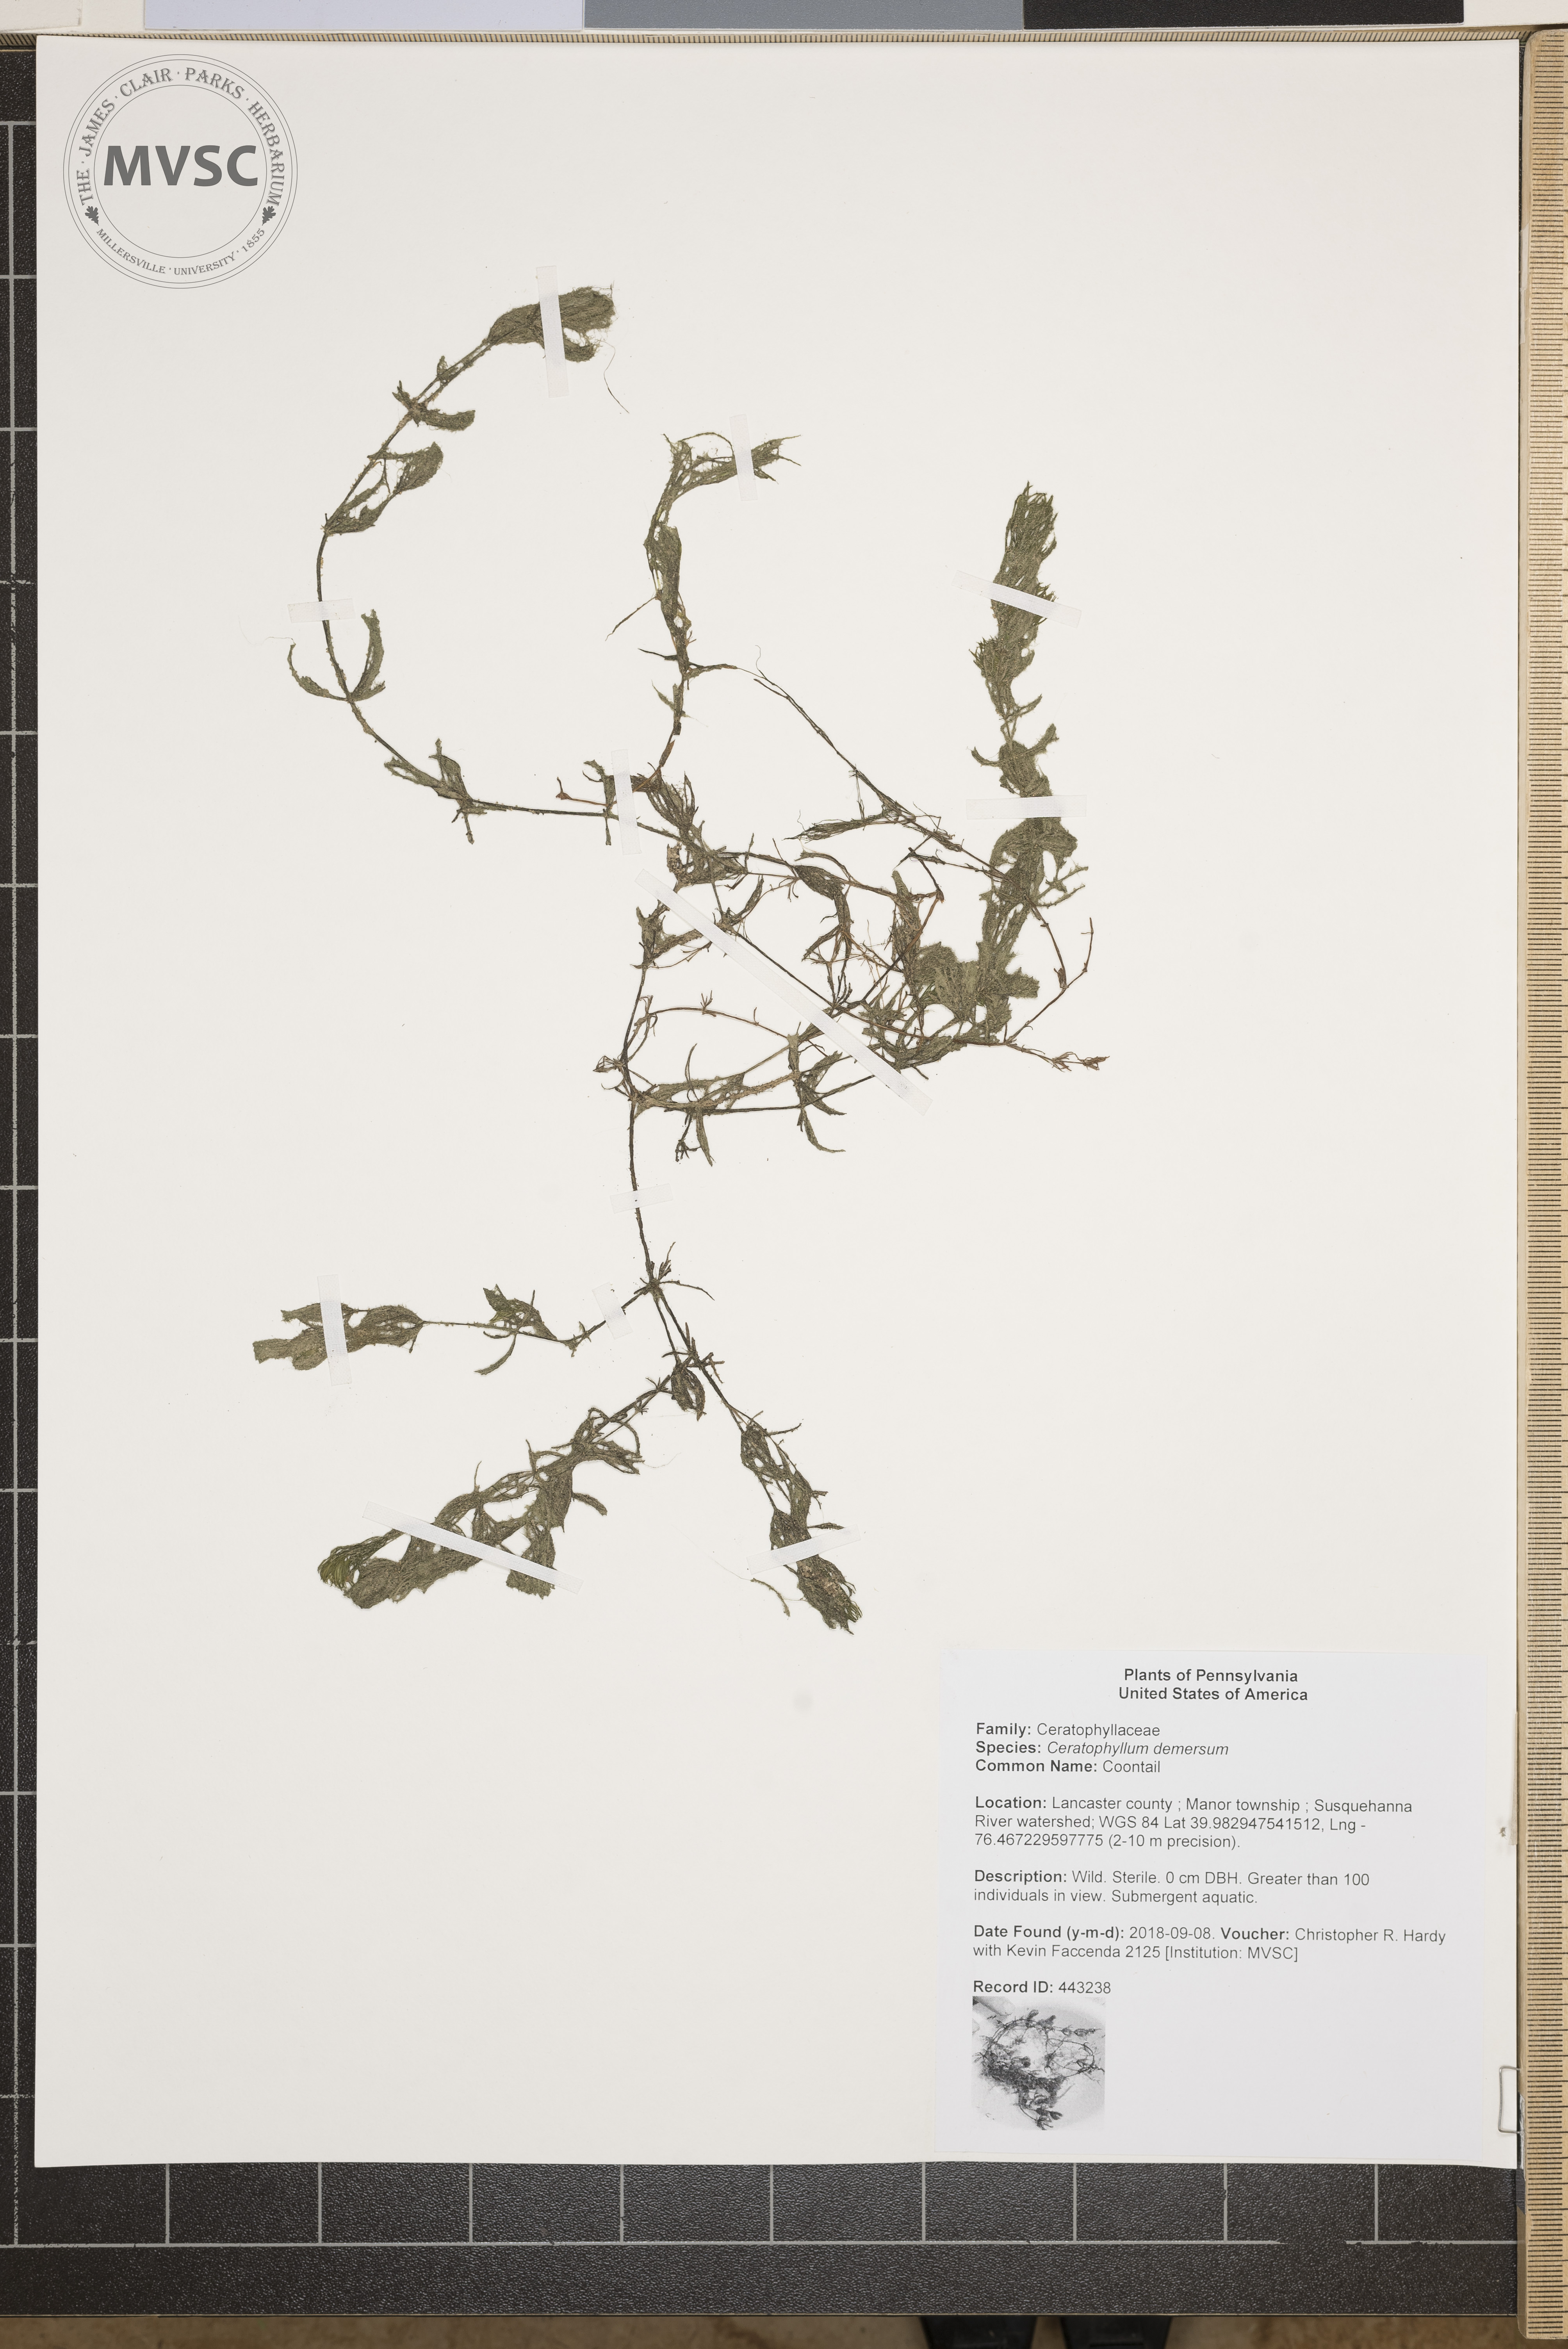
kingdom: Plantae
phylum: Tracheophyta
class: Magnoliopsida
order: Ceratophyllales
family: Ceratophyllaceae
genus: Ceratophyllum
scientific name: Ceratophyllum demersum
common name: Coontail
